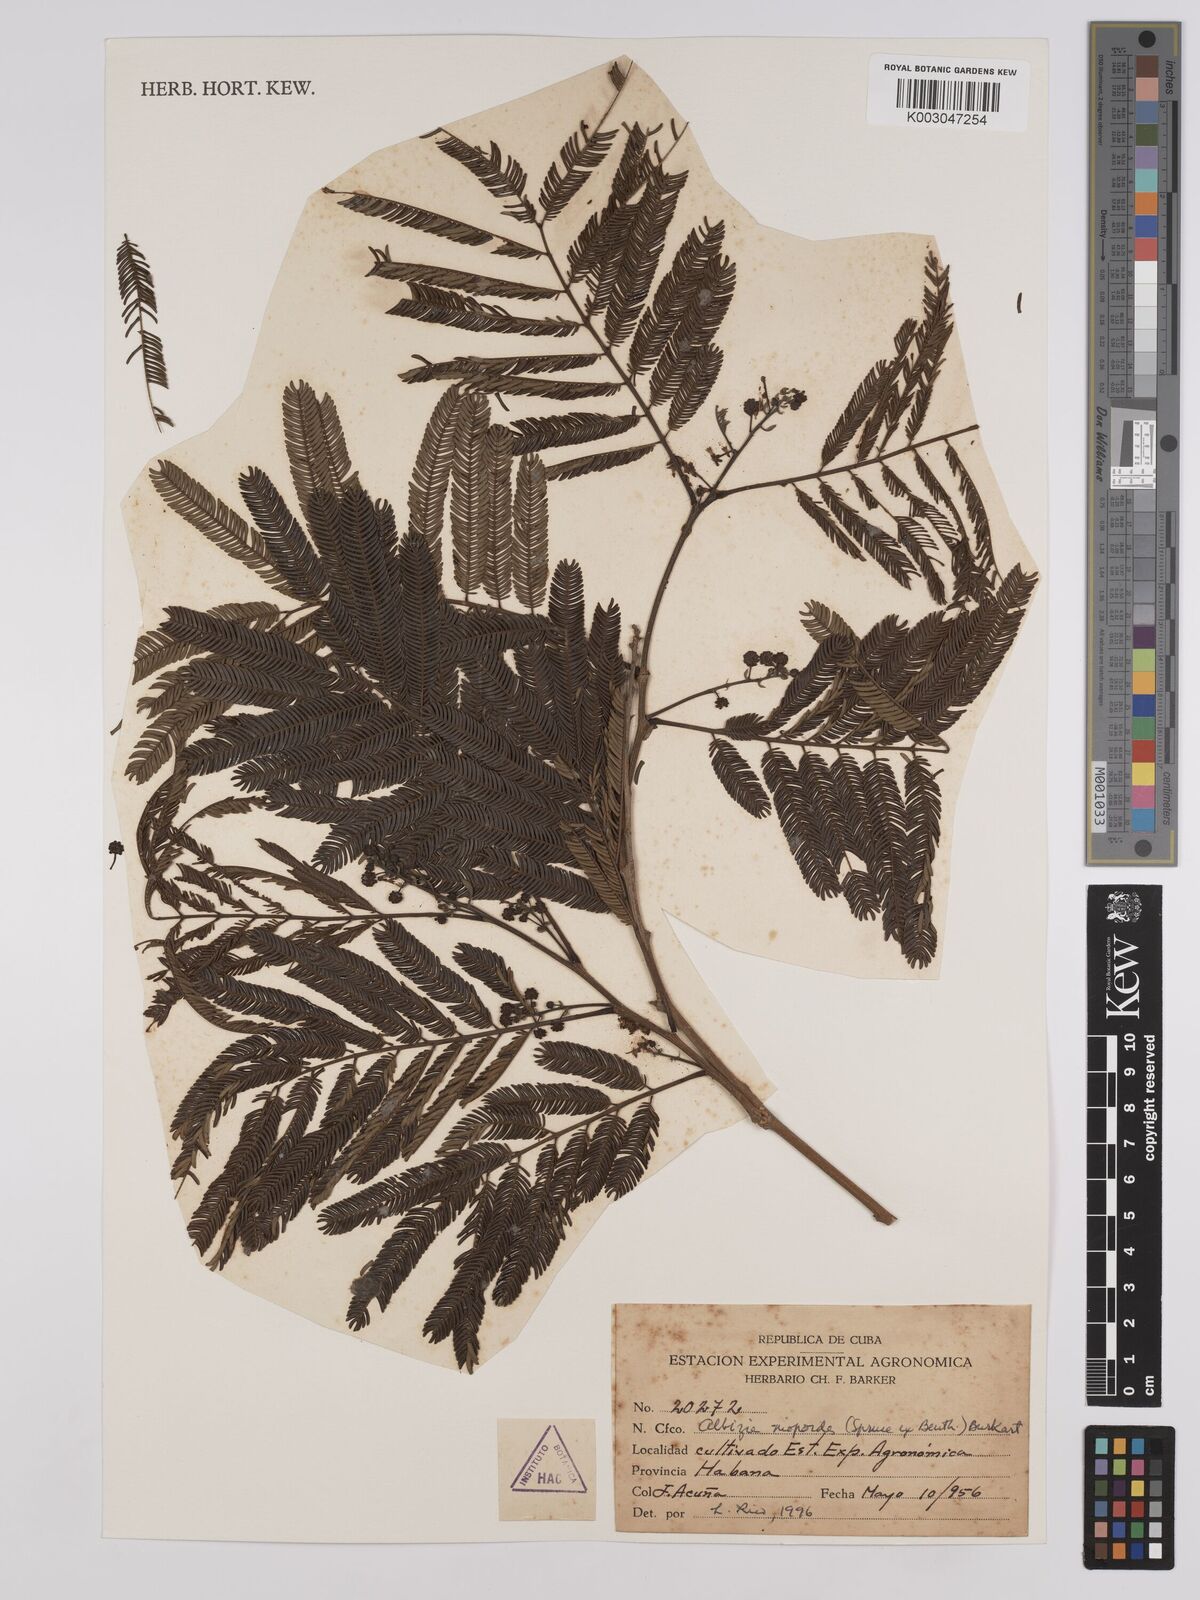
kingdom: Plantae
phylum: Tracheophyta
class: Magnoliopsida
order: Fabales
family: Fabaceae
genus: Albizia
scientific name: Albizia niopoides
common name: Silk tree
